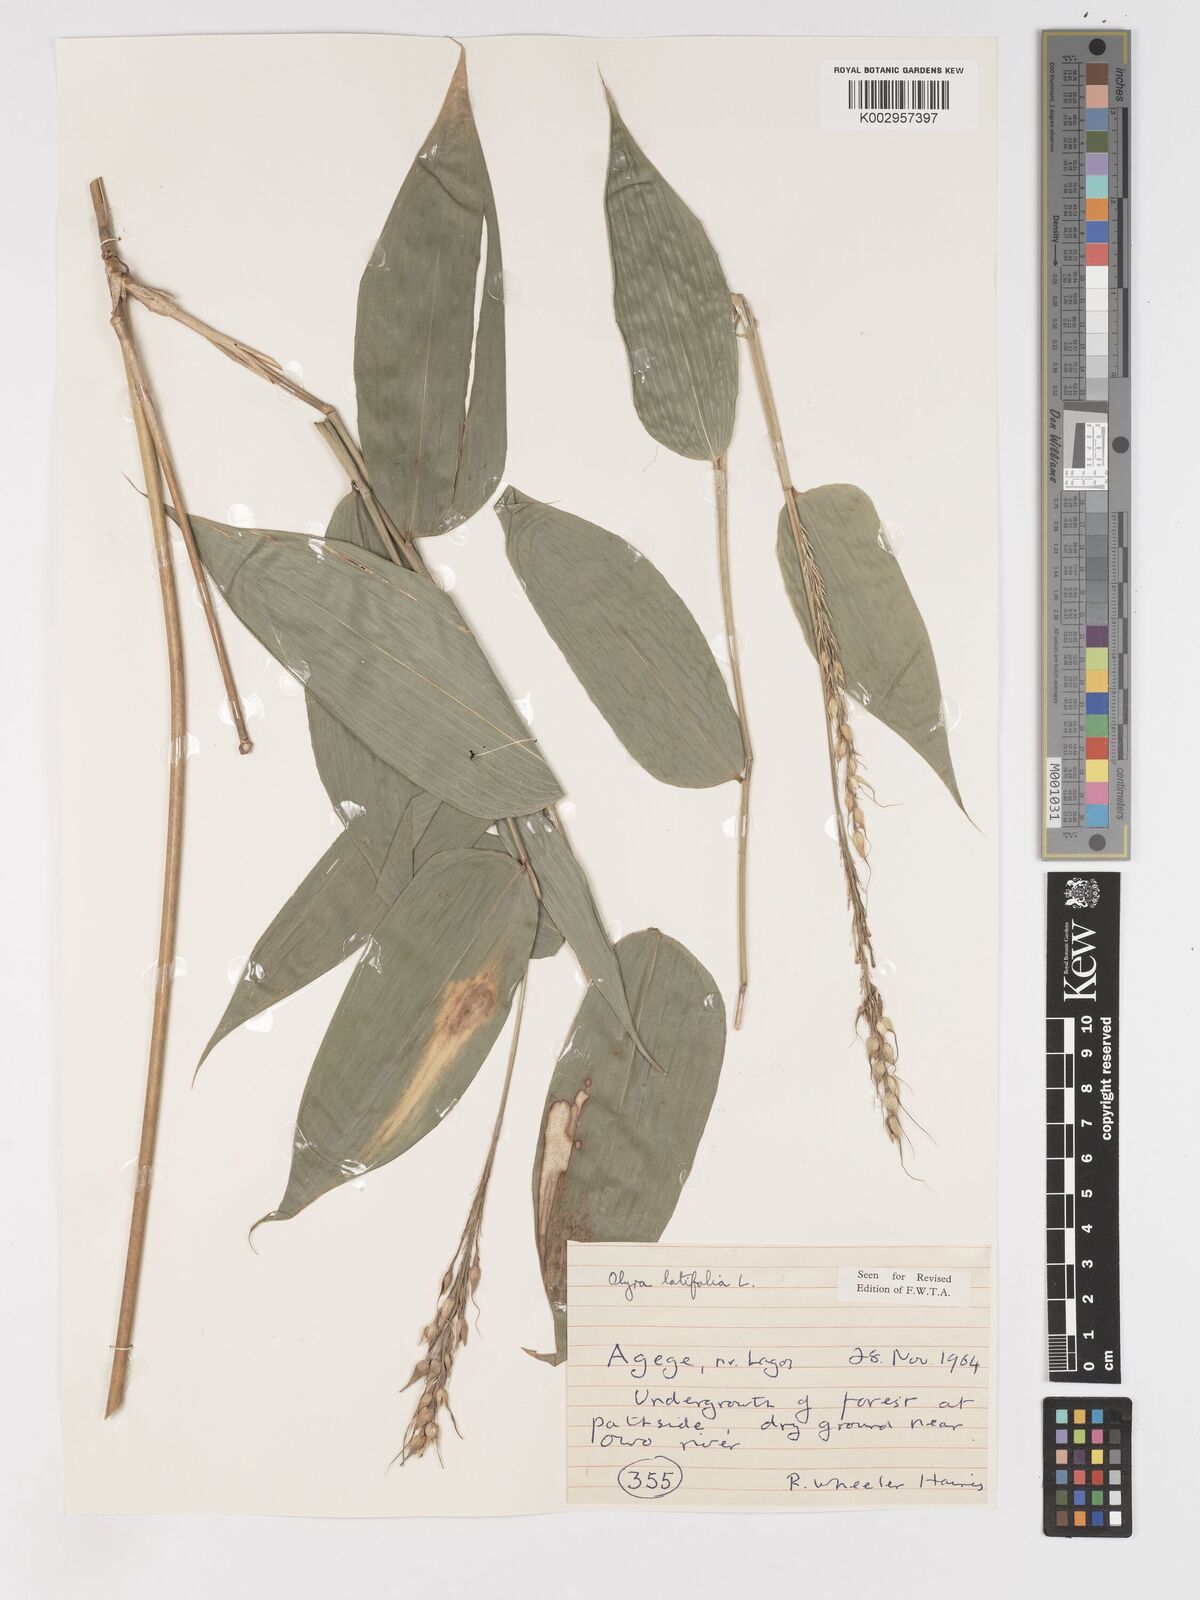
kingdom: Plantae
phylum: Tracheophyta
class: Liliopsida
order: Poales
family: Poaceae
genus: Olyra
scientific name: Olyra latifolia
